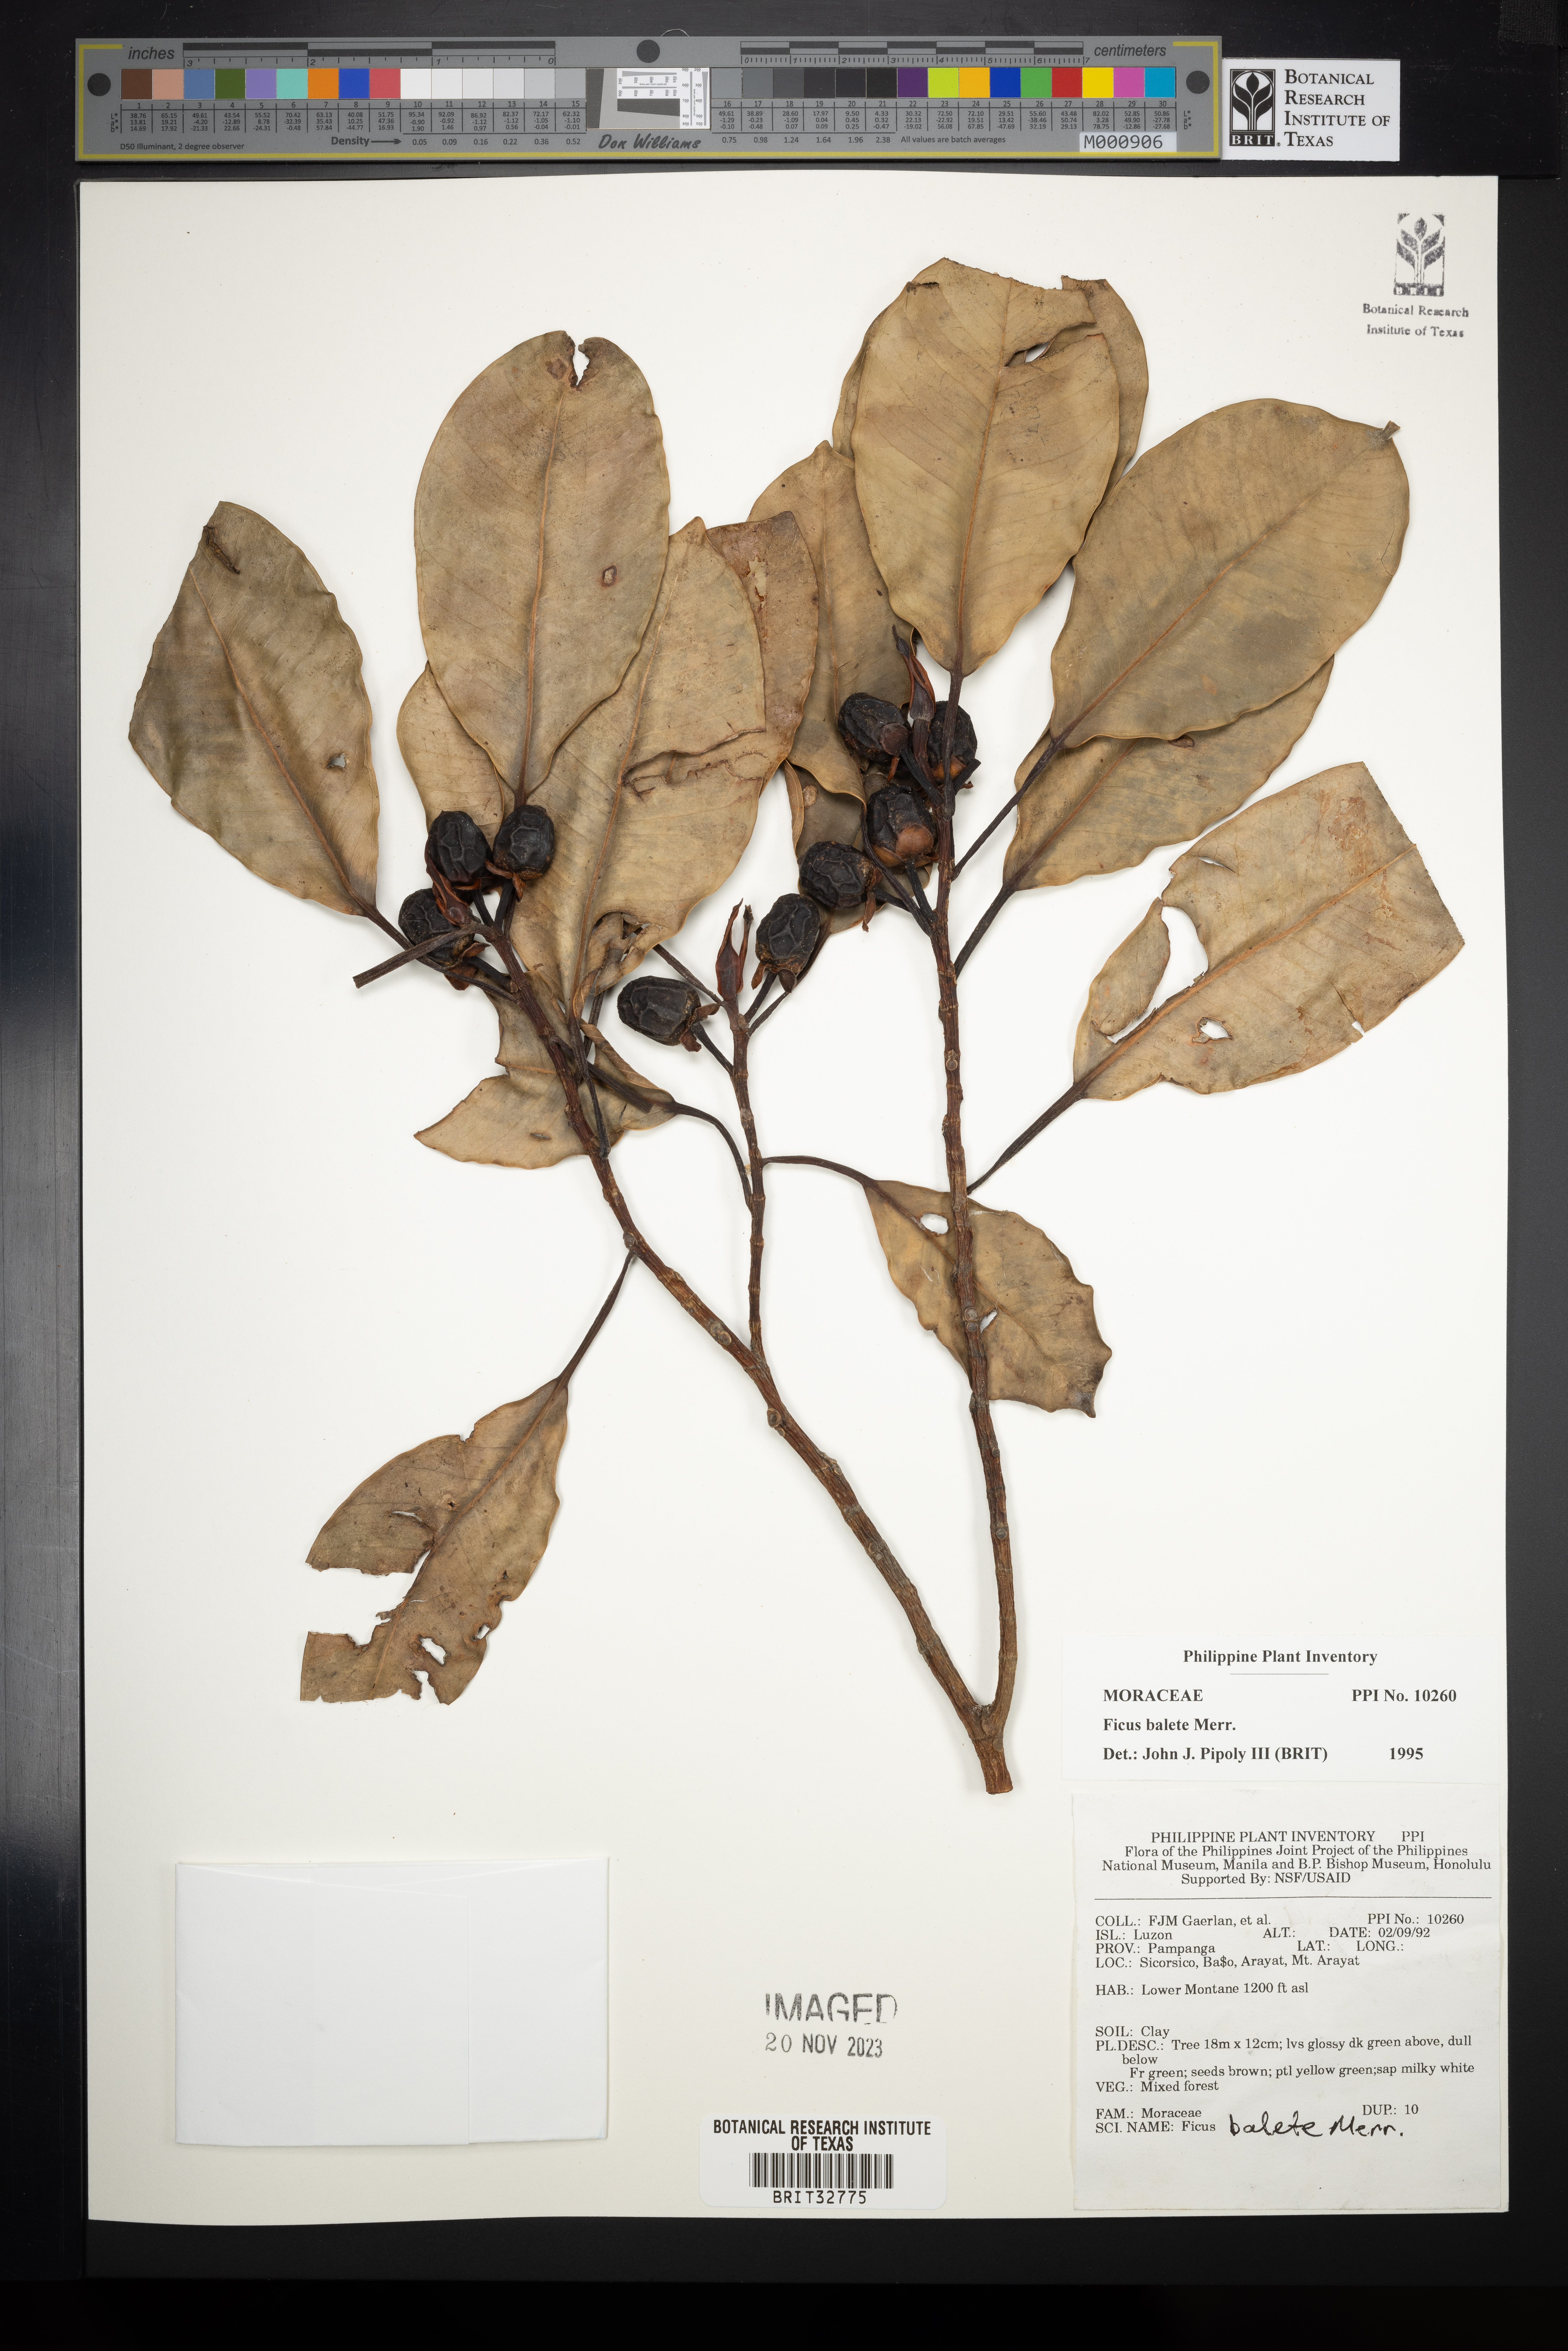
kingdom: Plantae
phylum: Tracheophyta
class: Magnoliopsida
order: Rosales
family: Moraceae
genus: Ficus
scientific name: Ficus balete
